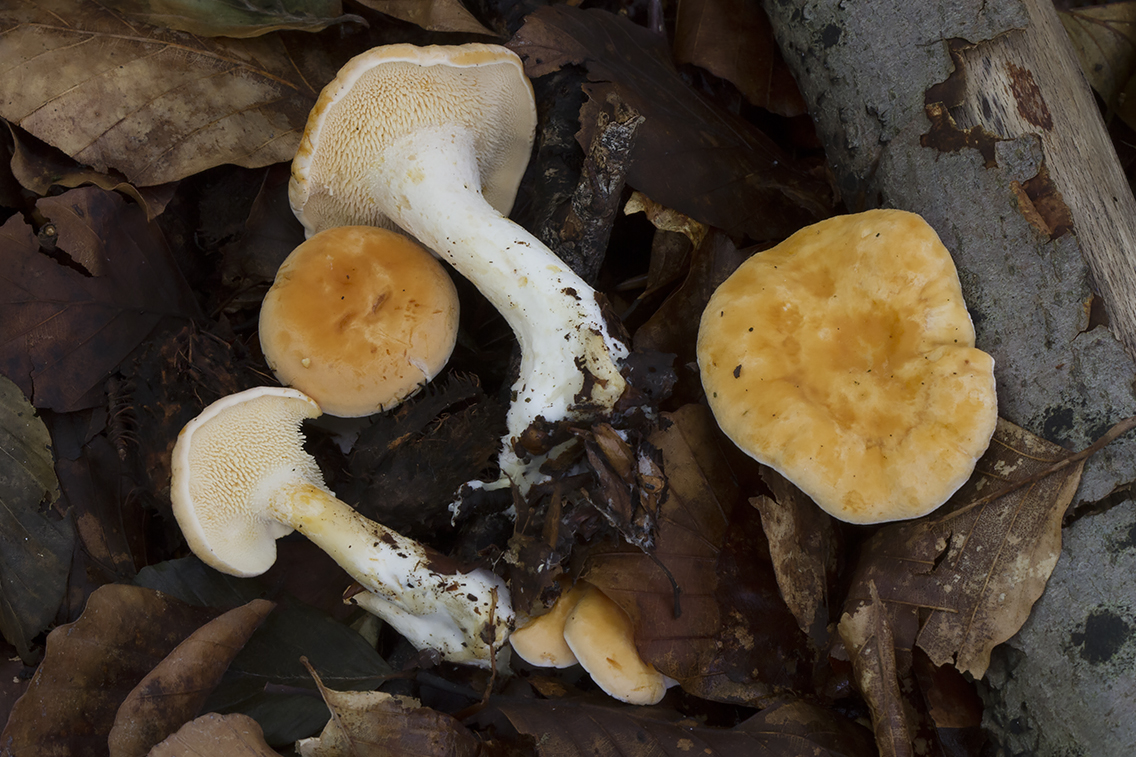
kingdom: Fungi
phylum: Basidiomycota
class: Agaricomycetes
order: Cantharellales
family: Hydnaceae
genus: Hydnum
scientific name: Hydnum magnorufescens
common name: brunende pigsvamp
